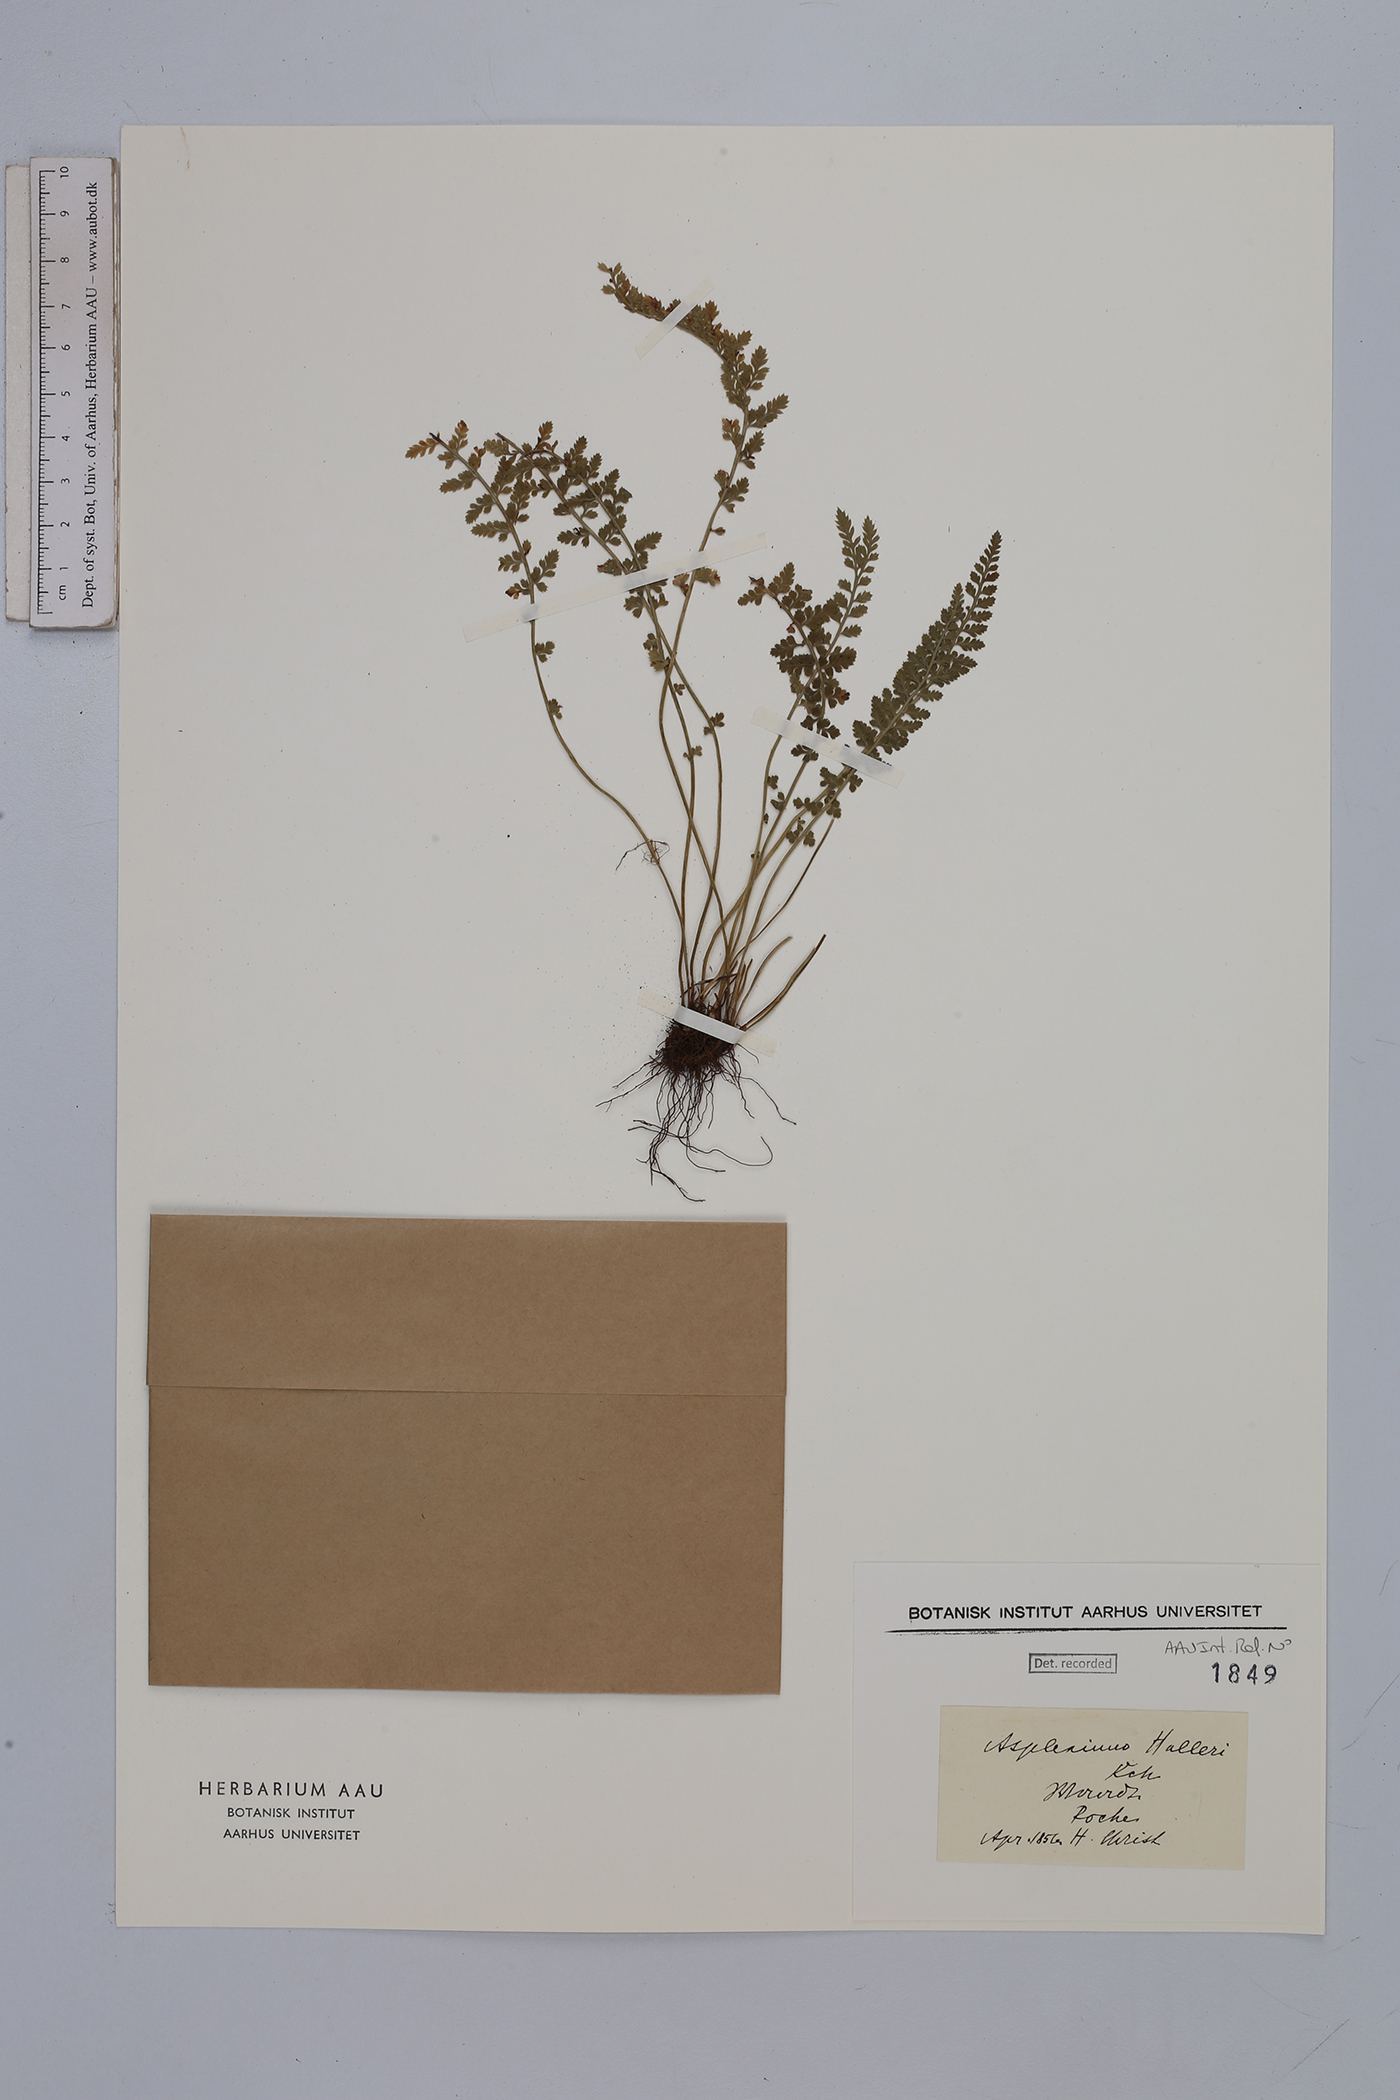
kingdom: Plantae
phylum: Tracheophyta
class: Polypodiopsida
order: Polypodiales
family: Aspleniaceae
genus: Asplenium
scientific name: Asplenium fontanum
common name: Fountain spleenwort
